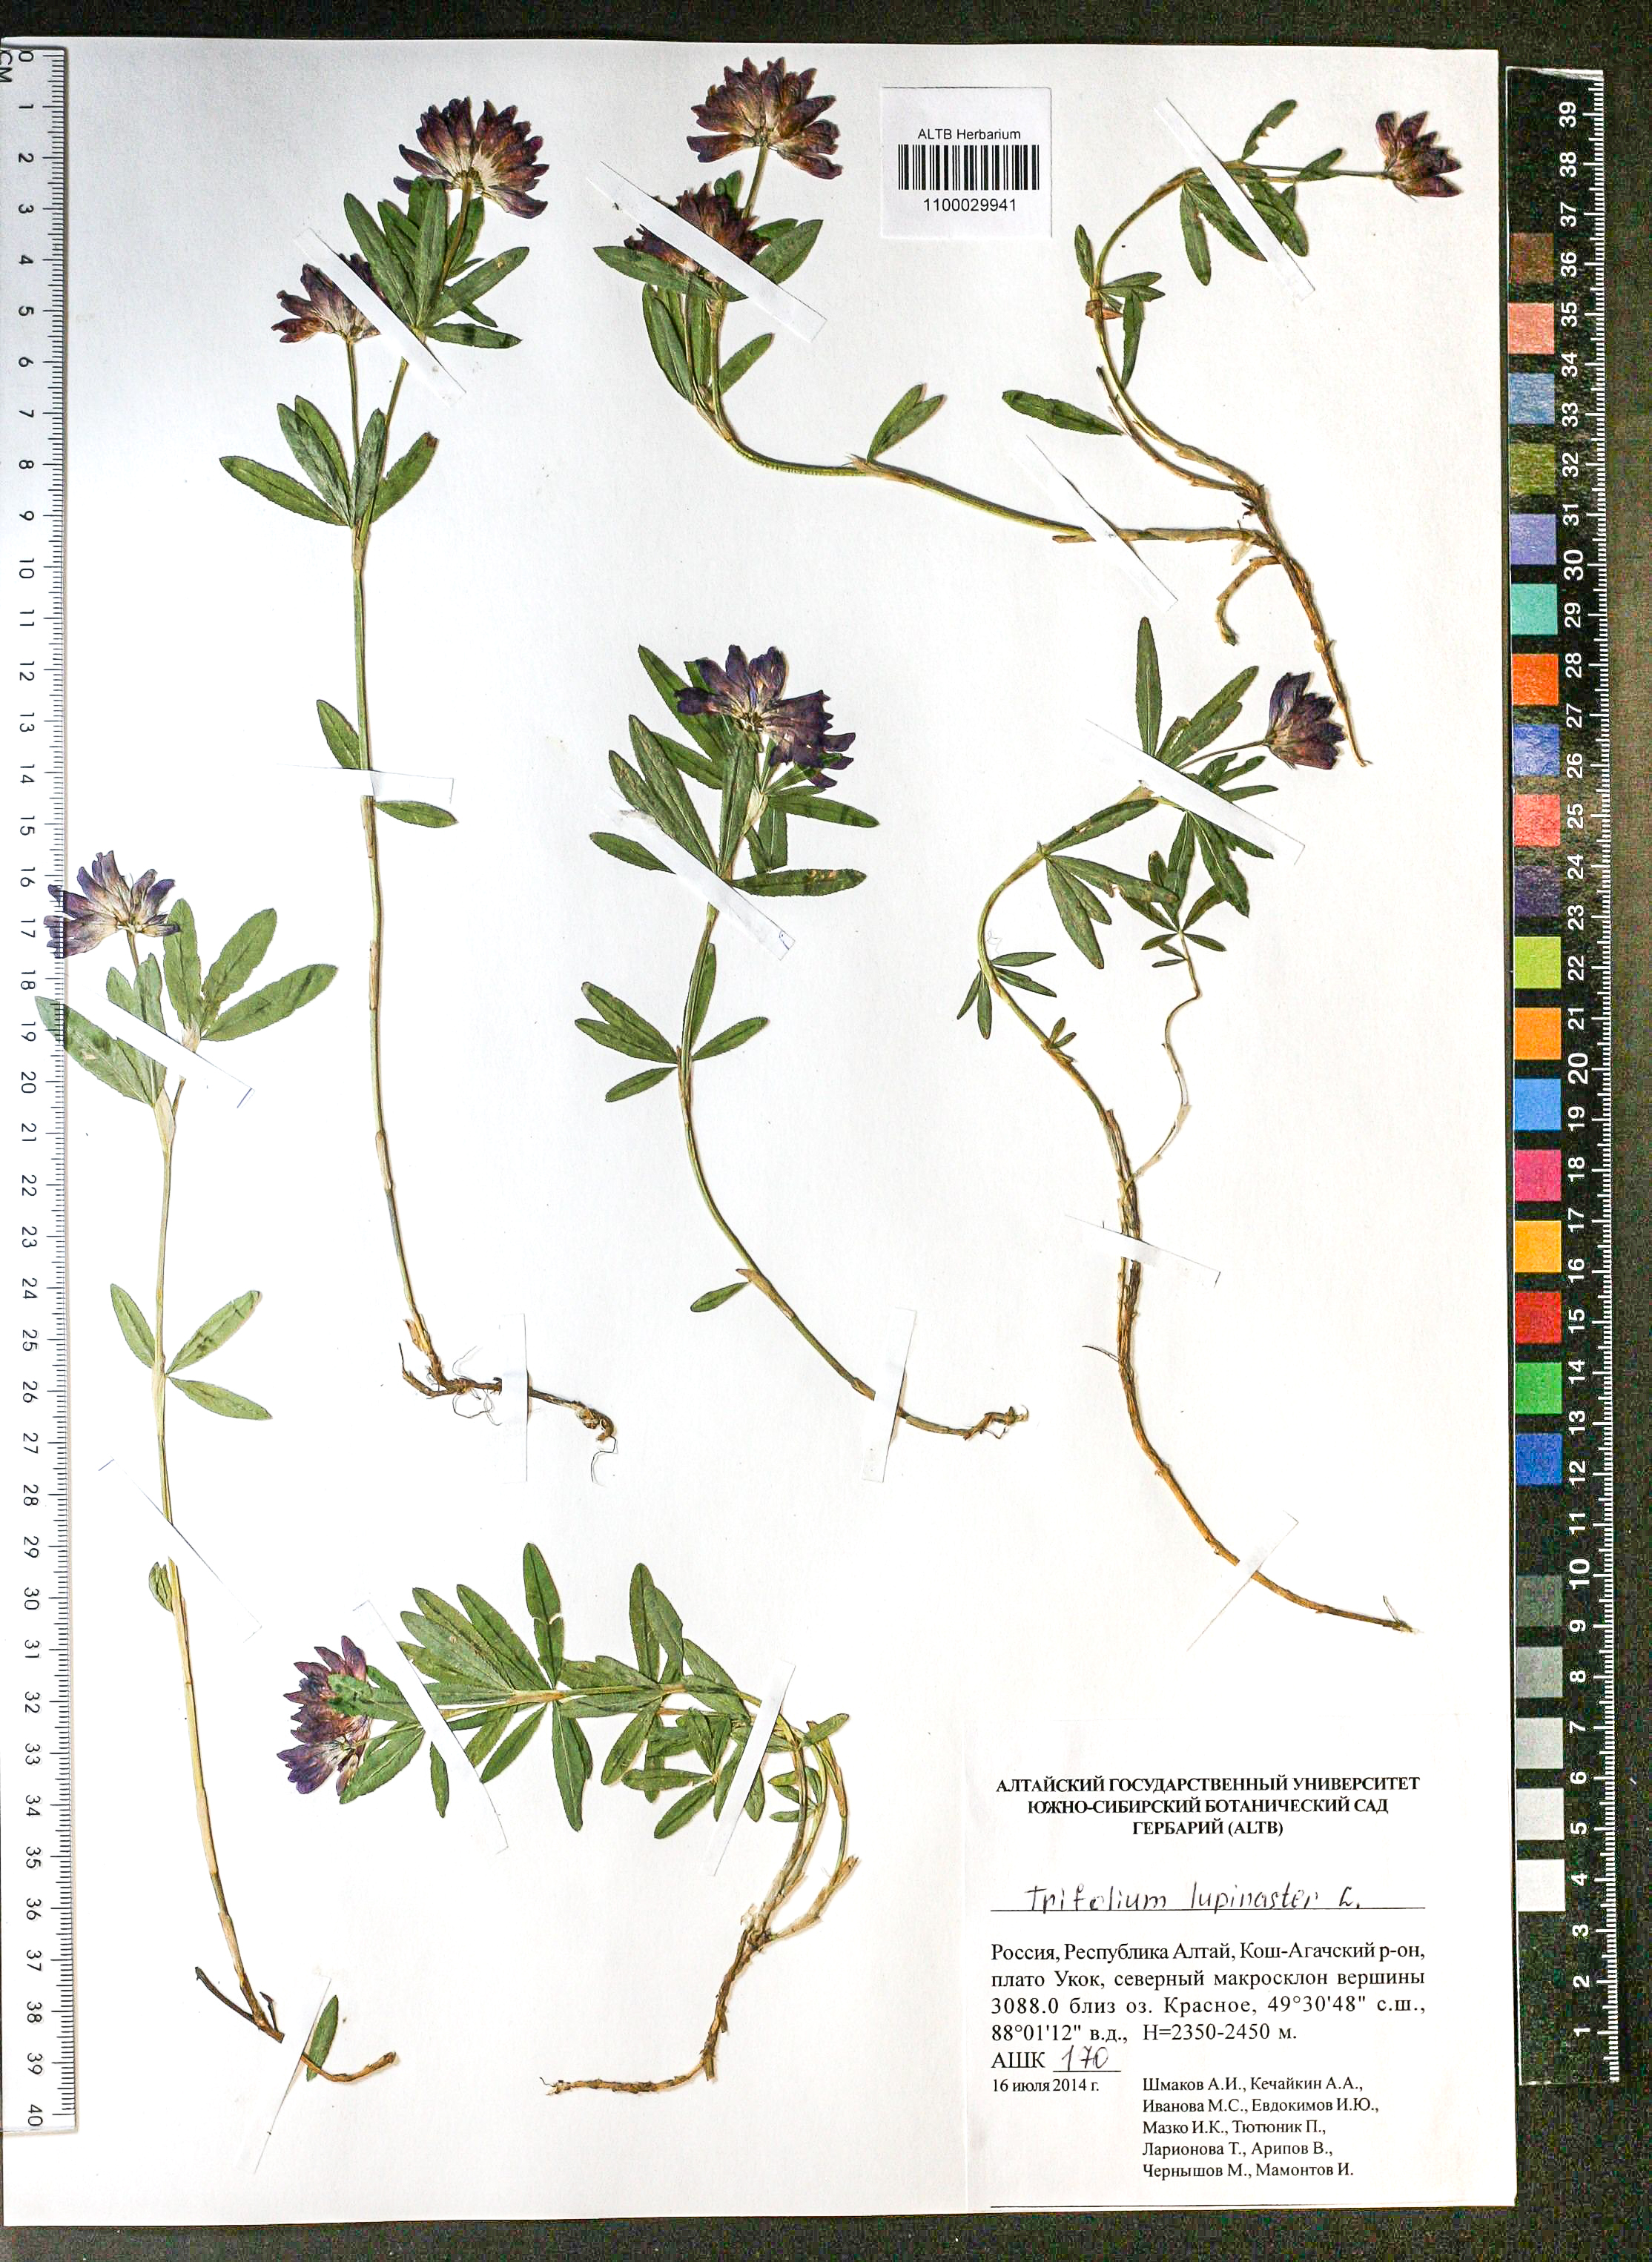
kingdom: Plantae
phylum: Tracheophyta
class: Magnoliopsida
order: Fabales
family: Fabaceae
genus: Trifolium
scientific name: Trifolium lupinaster
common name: Lupine clover
